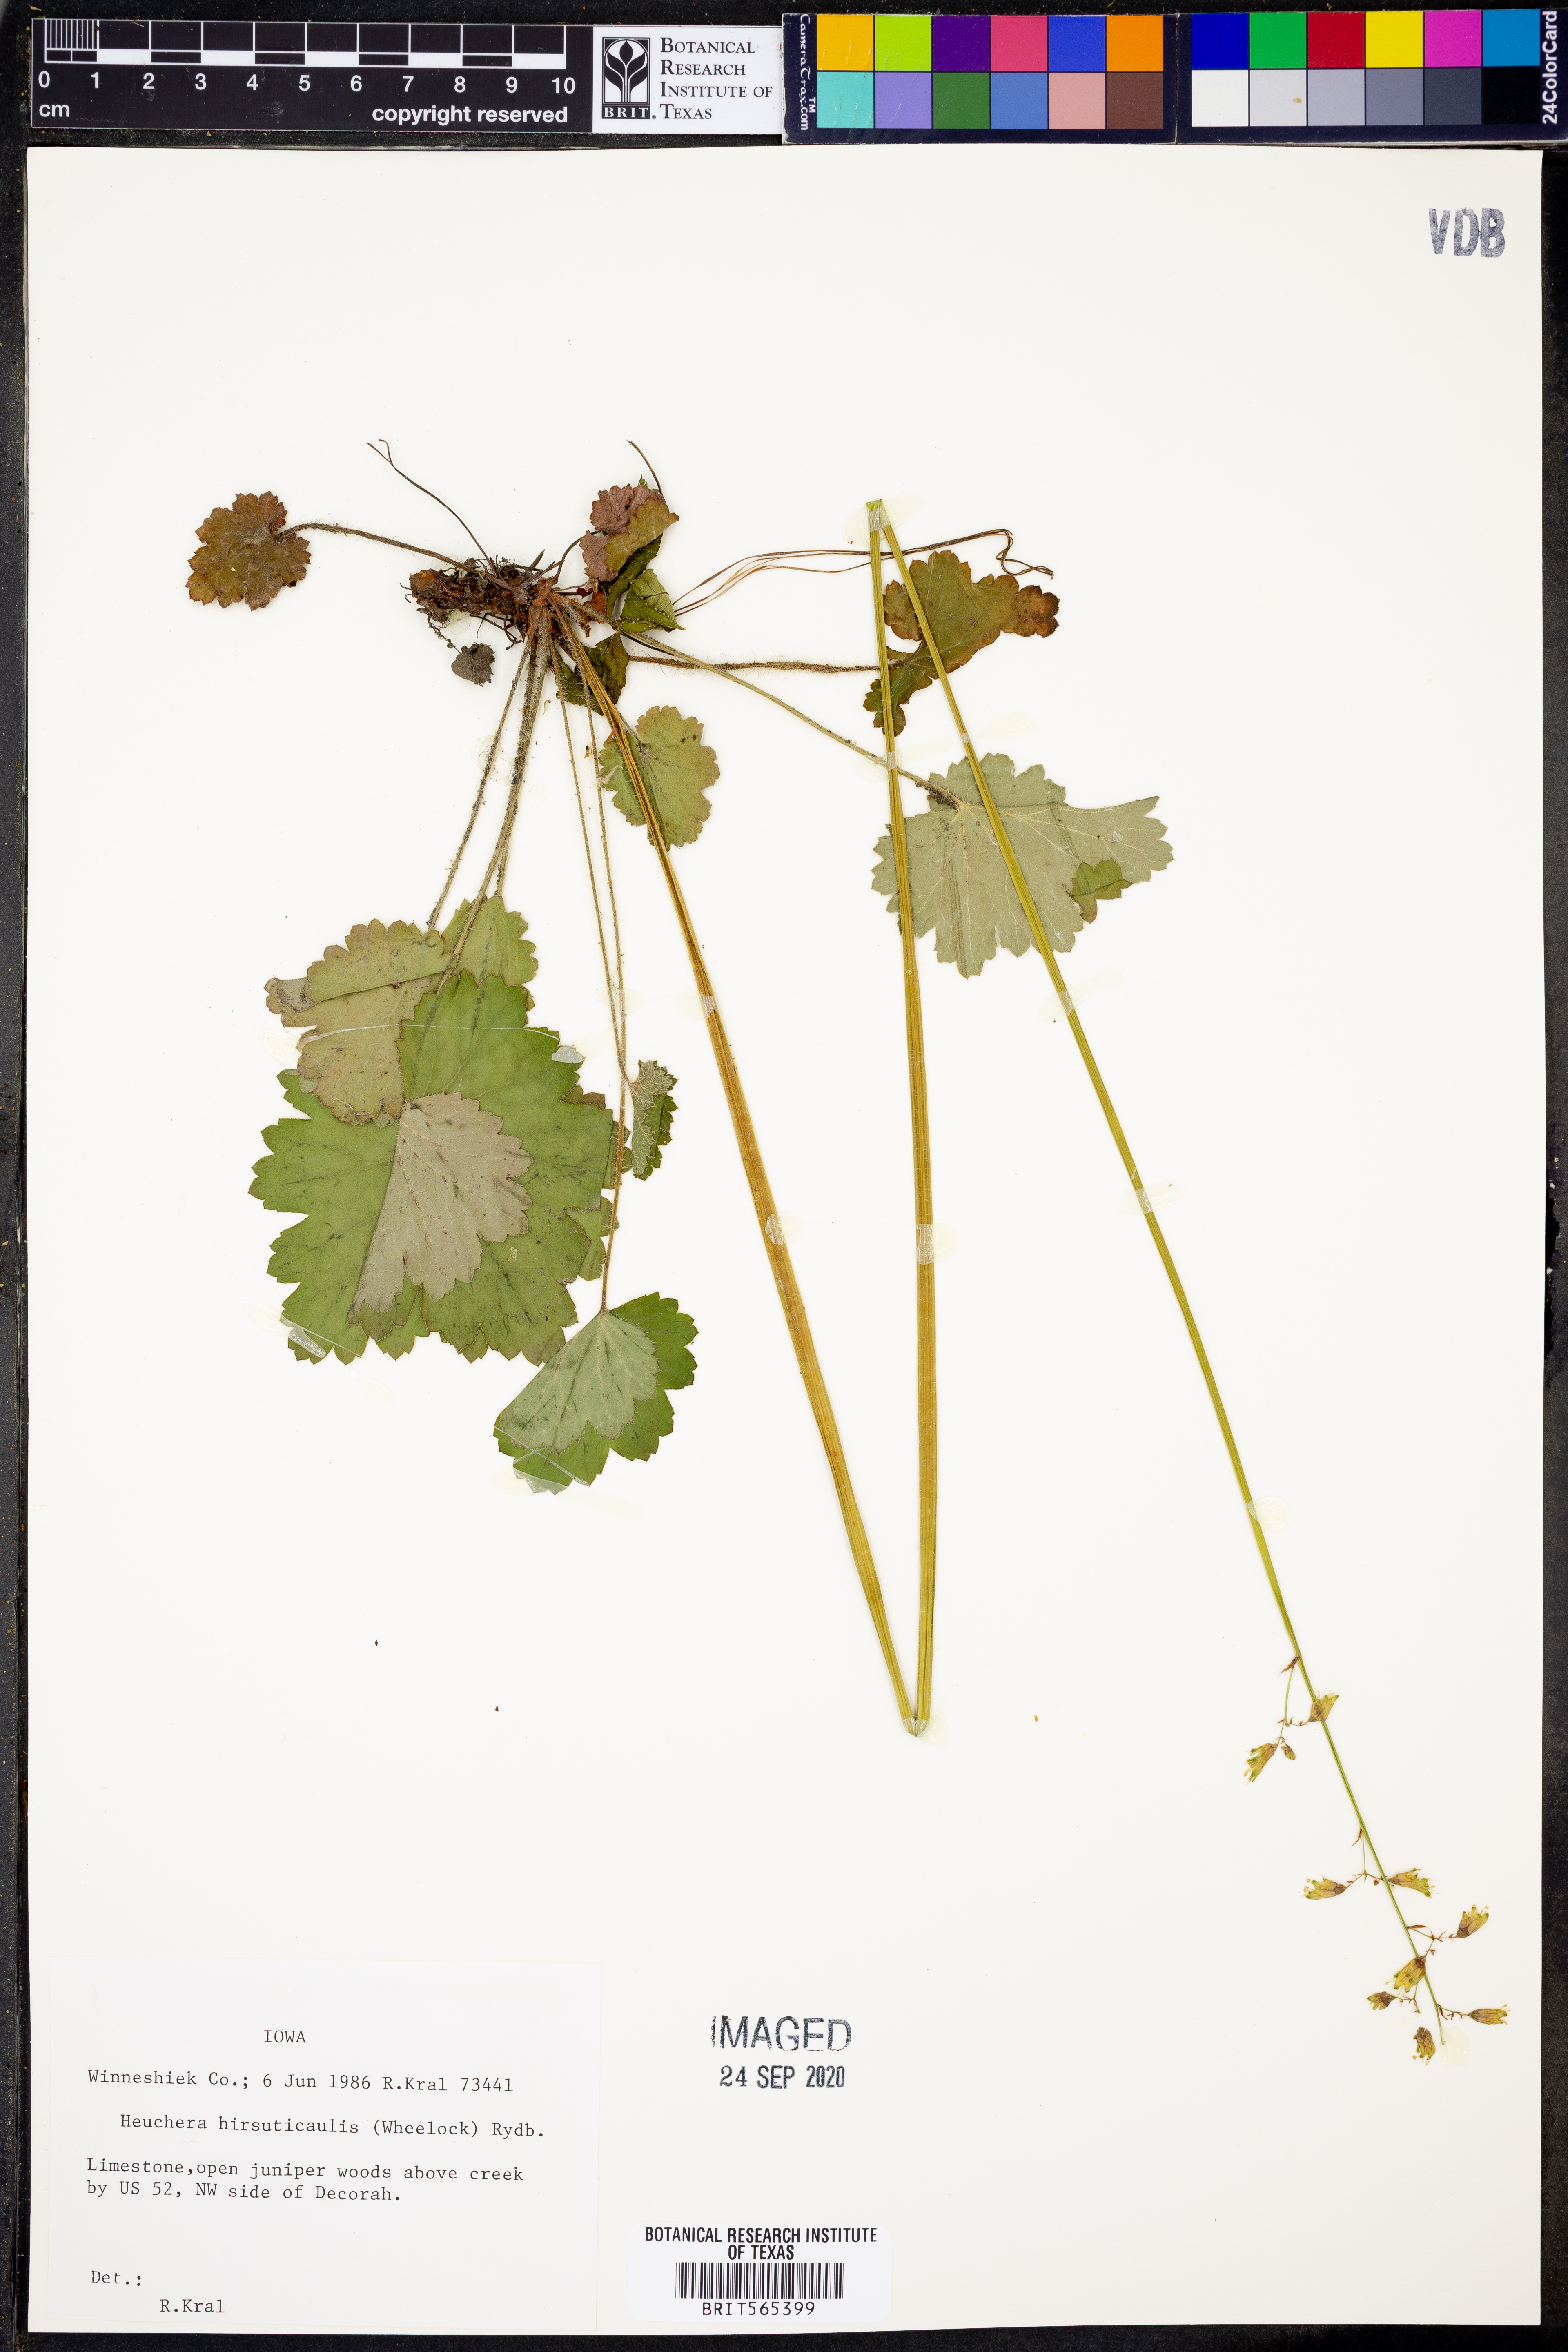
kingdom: Plantae
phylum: Tracheophyta
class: Magnoliopsida
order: Saxifragales
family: Saxifragaceae
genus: Heuchera
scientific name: Heuchera americana
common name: Alumroot
